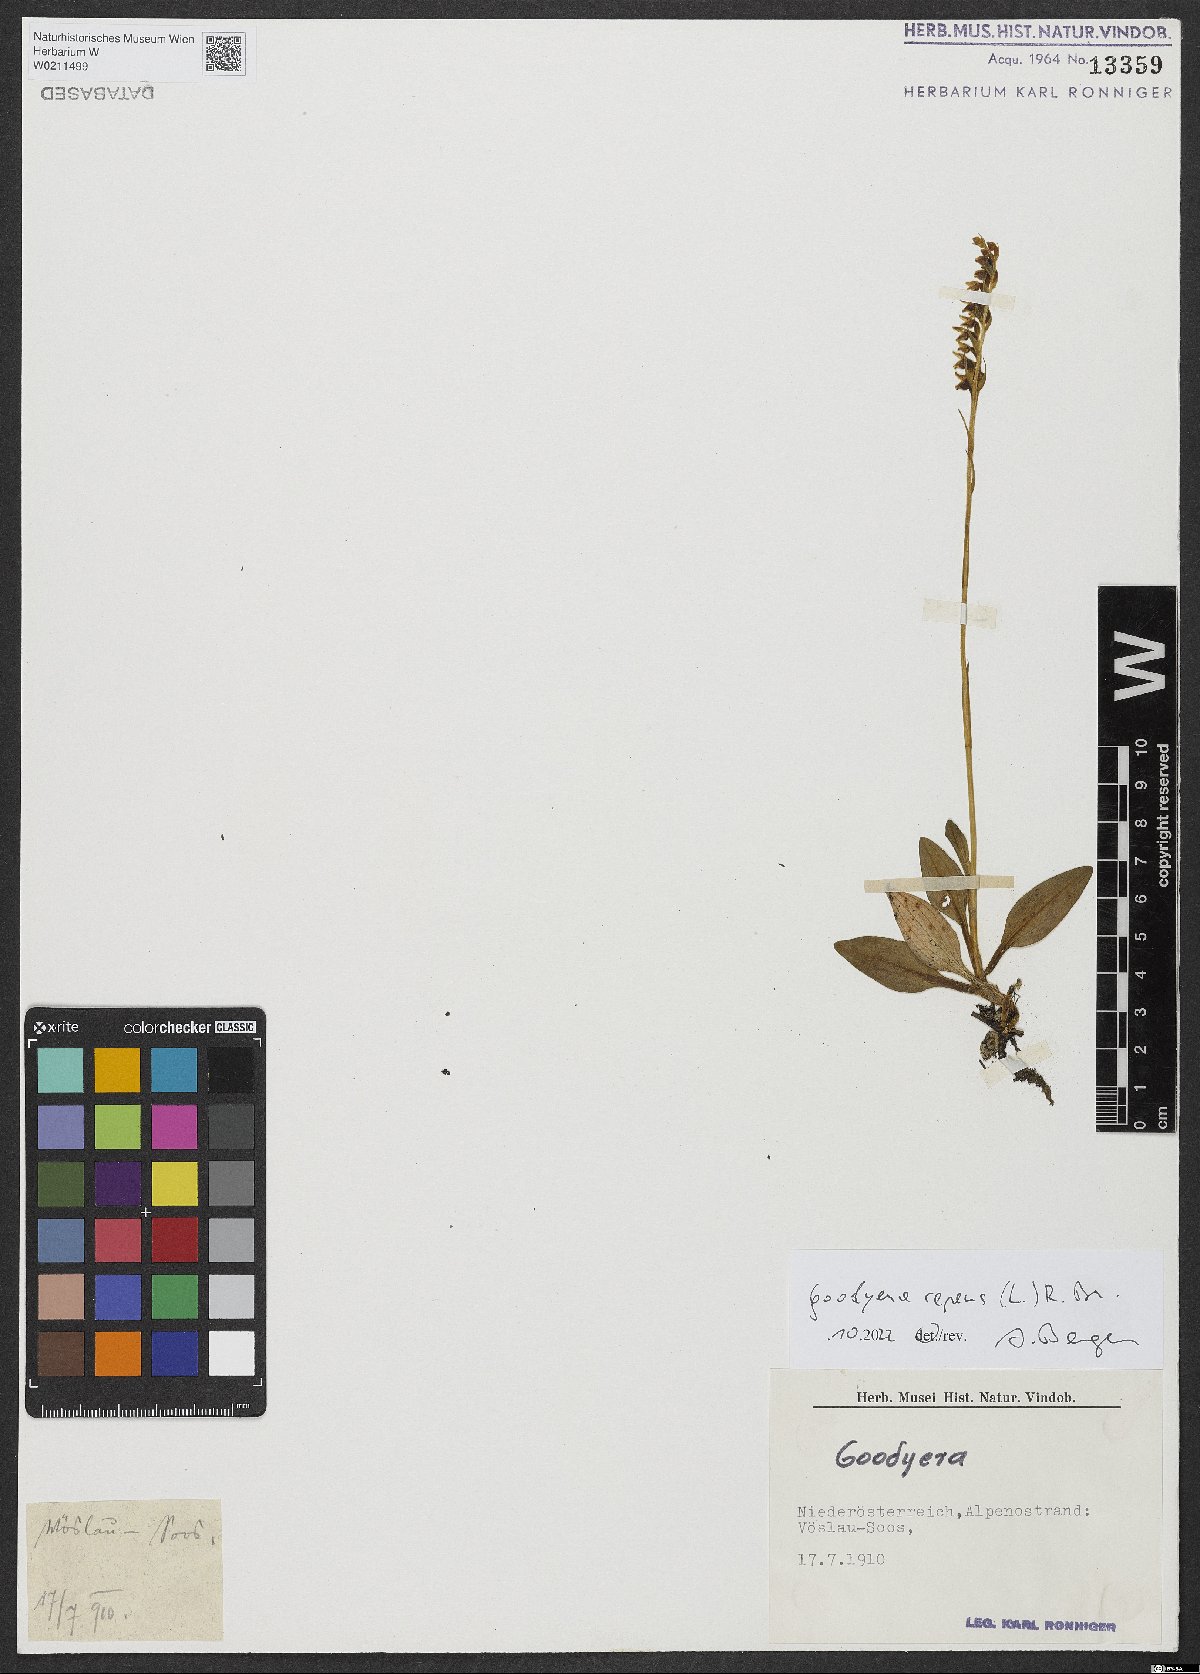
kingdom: Plantae
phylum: Tracheophyta
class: Liliopsida
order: Asparagales
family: Orchidaceae
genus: Goodyera
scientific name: Goodyera repens
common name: Creeping lady's-tresses
